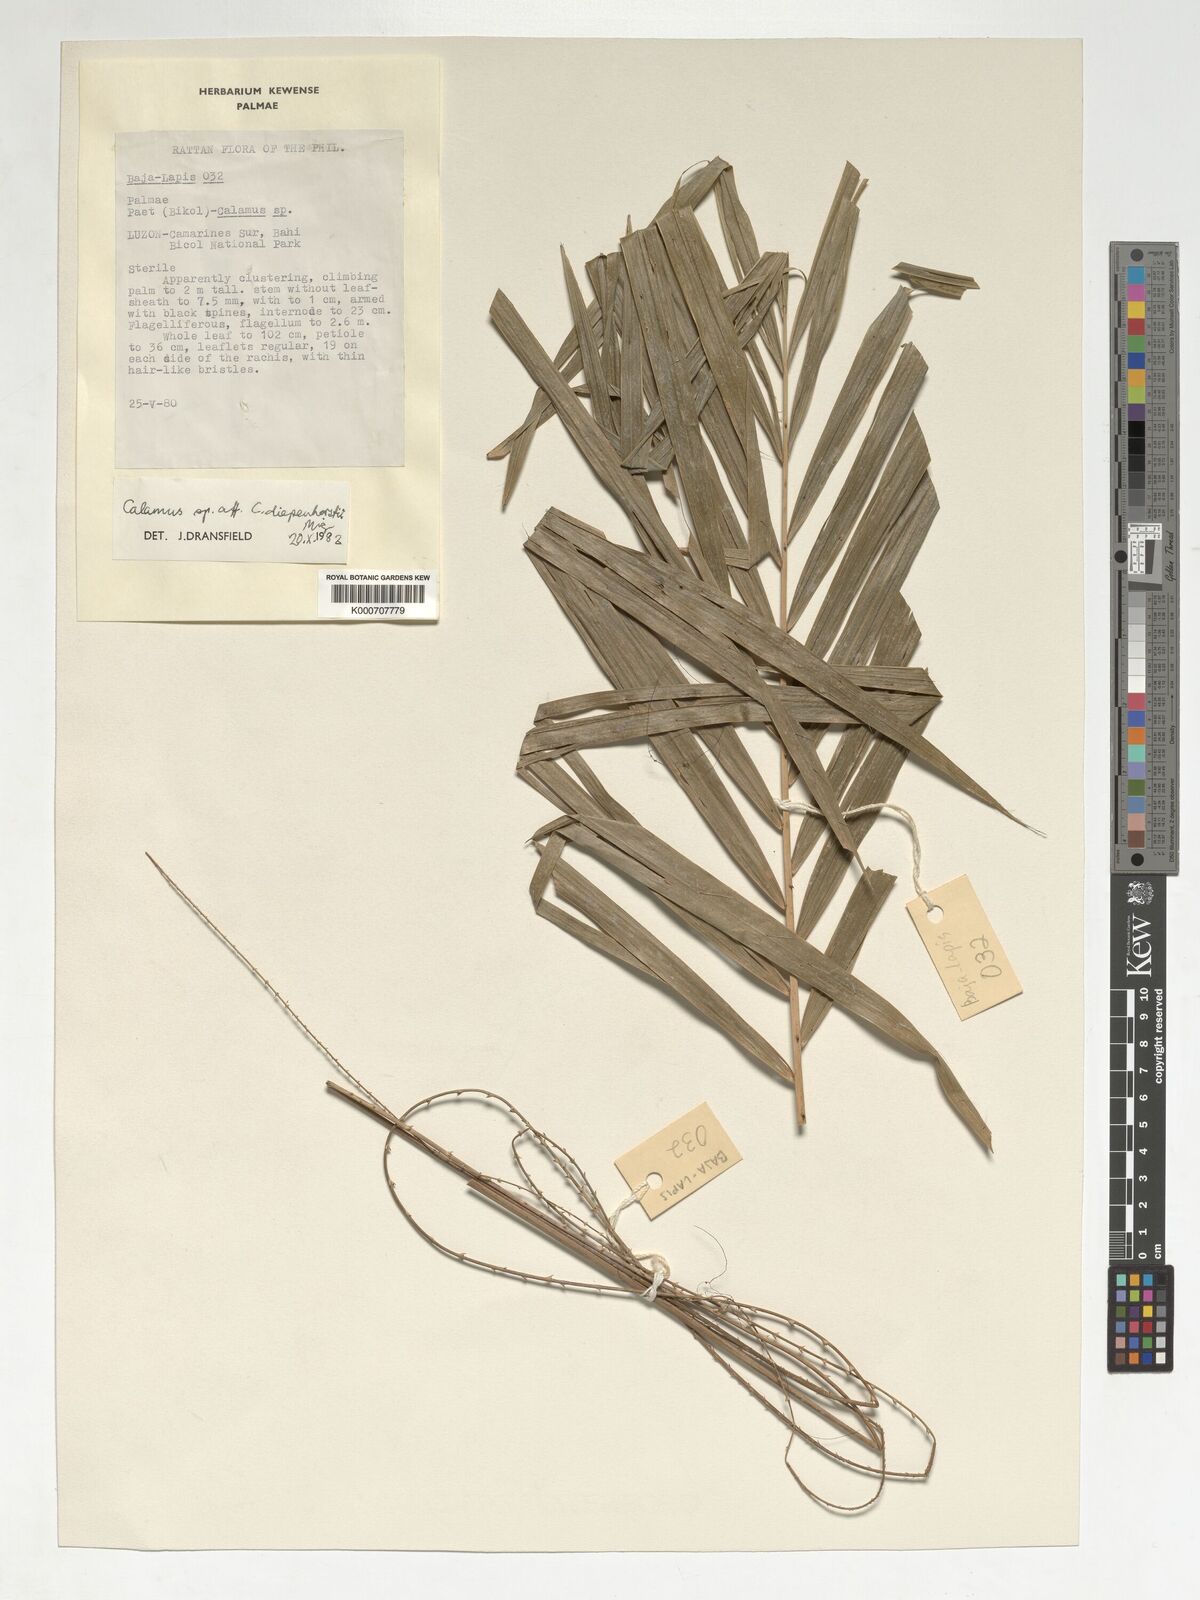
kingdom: Plantae
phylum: Tracheophyta
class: Liliopsida
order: Arecales
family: Arecaceae
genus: Calamus
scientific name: Calamus diepenhorstii
